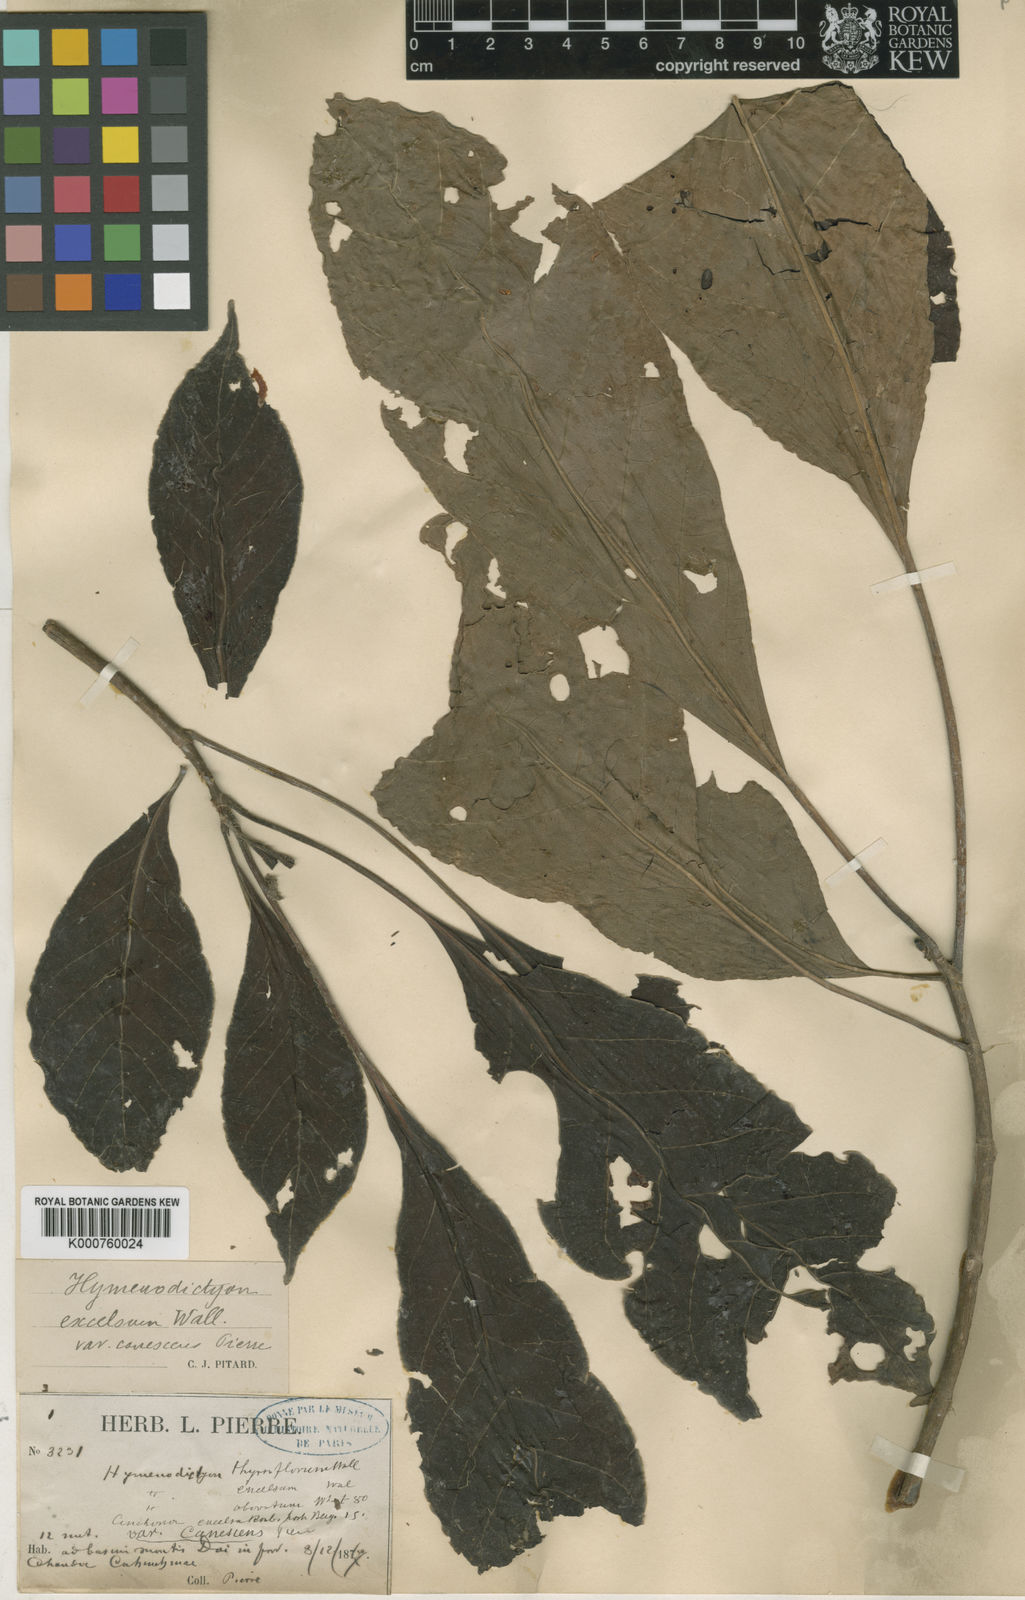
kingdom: Plantae
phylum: Tracheophyta
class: Magnoliopsida
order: Gentianales
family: Rubiaceae
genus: Hymenodictyon
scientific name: Hymenodictyon orixense
